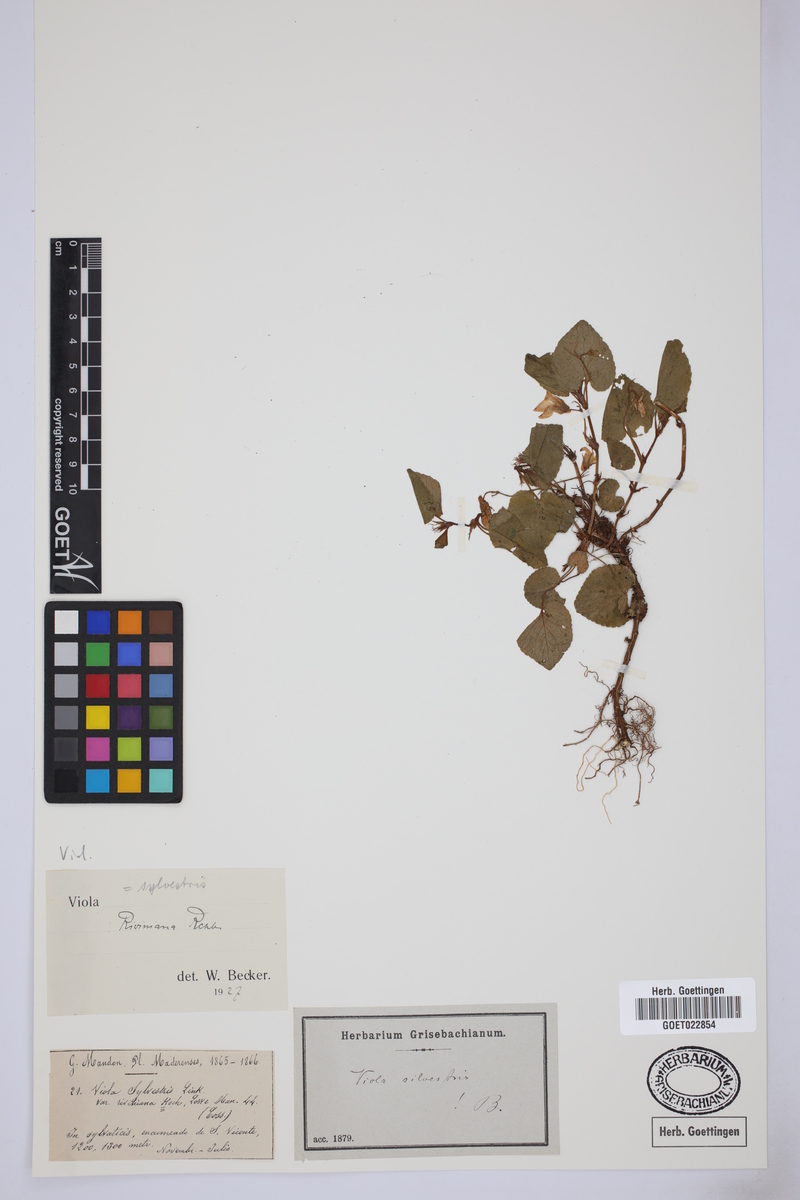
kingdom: Plantae
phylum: Tracheophyta
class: Magnoliopsida
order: Malpighiales
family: Violaceae
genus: Viola
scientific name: Viola canina
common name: Heath dog-violet
